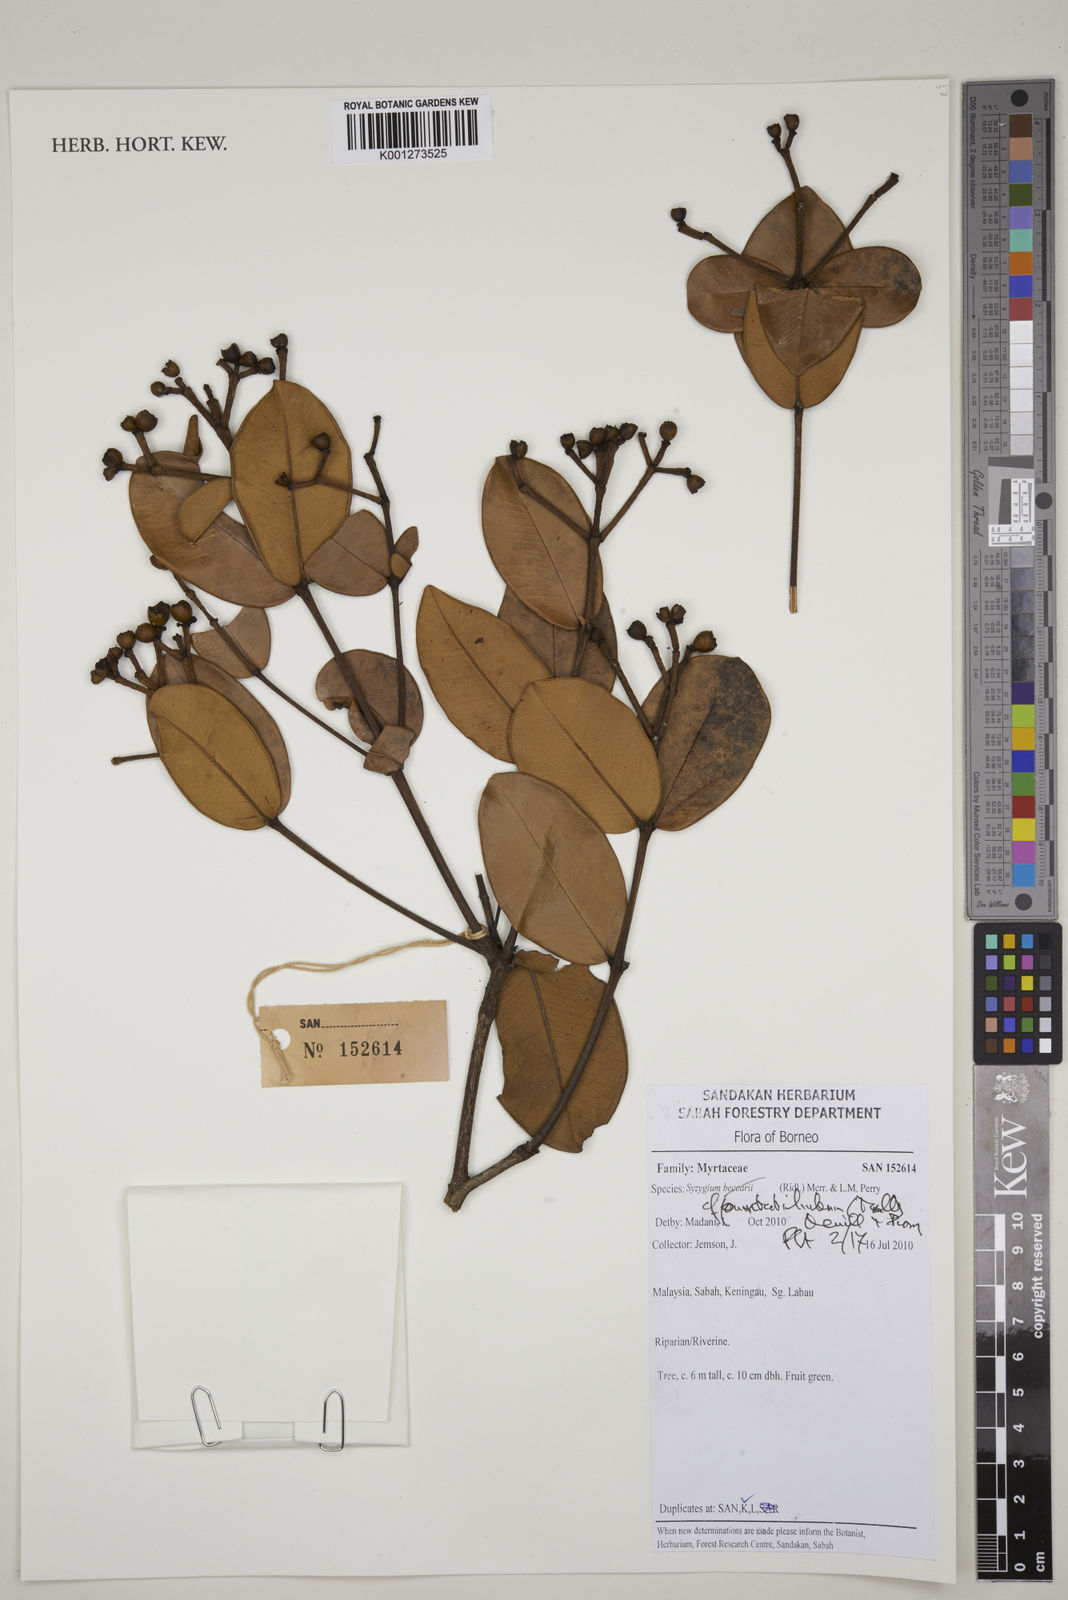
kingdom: Plantae
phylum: Tracheophyta
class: Magnoliopsida
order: Myrtales
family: Myrtaceae
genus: Syzygium
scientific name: Syzygium punctilimbum
